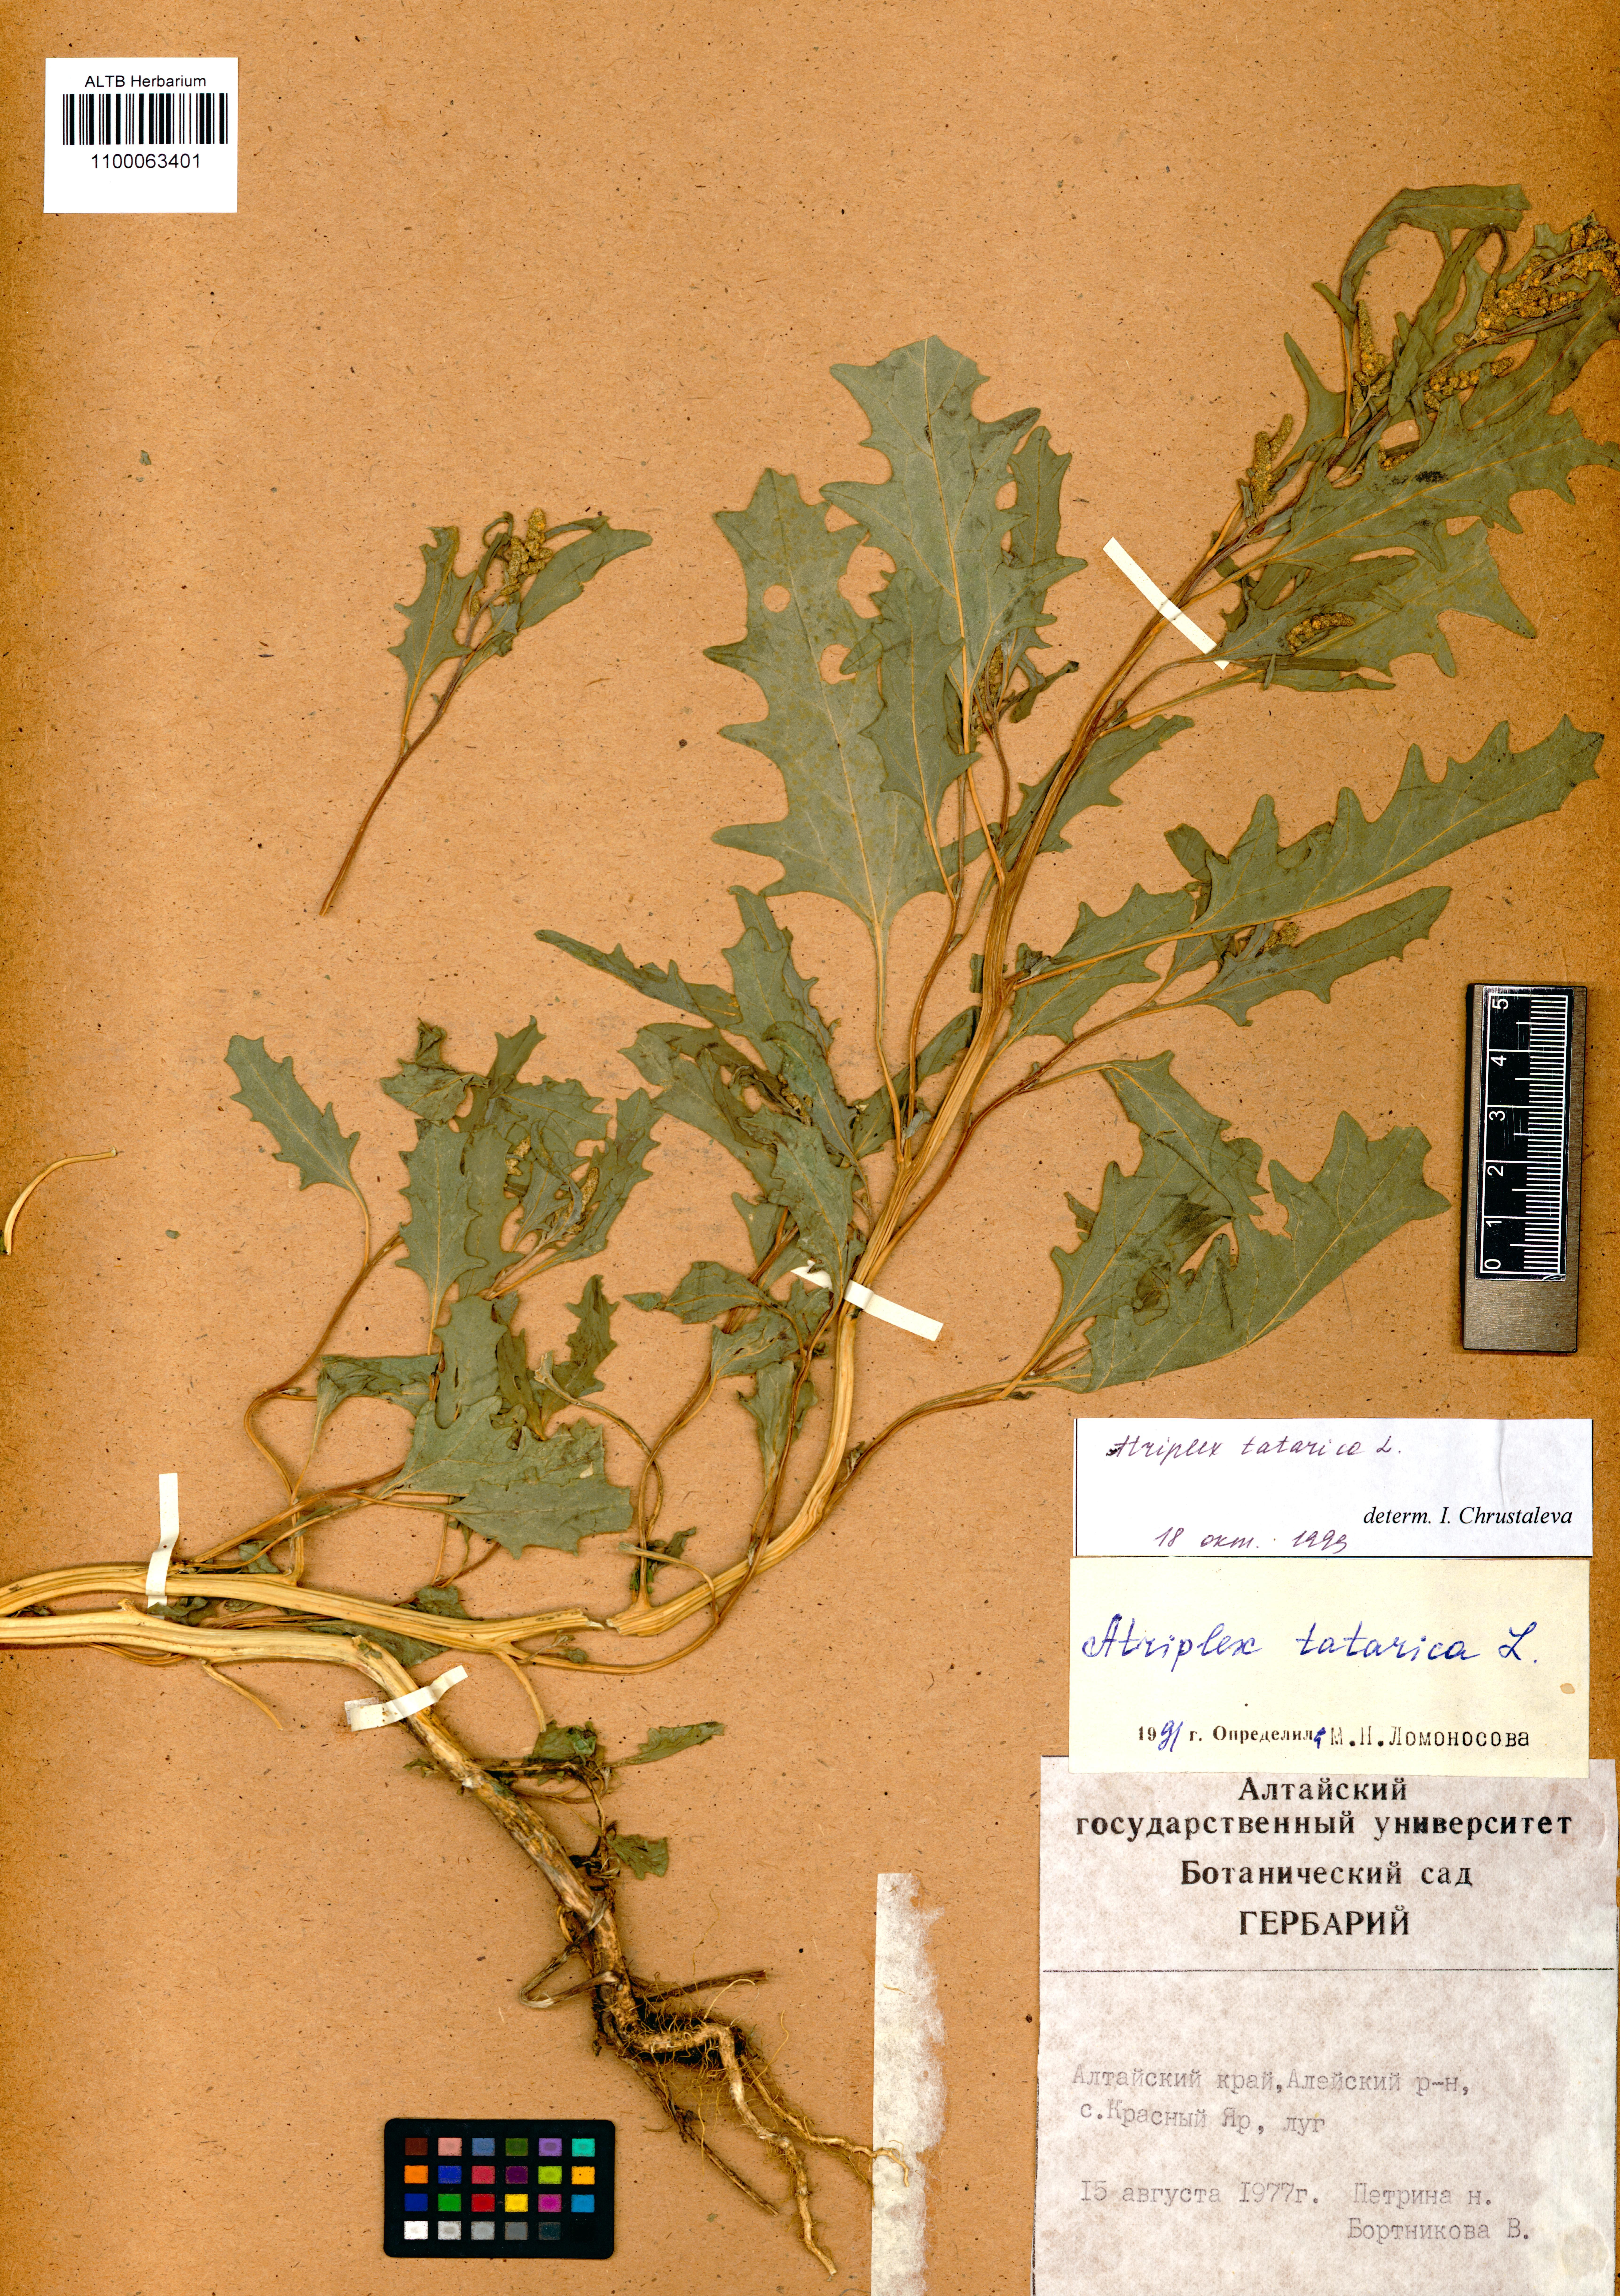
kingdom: Plantae
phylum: Tracheophyta
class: Magnoliopsida
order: Caryophyllales
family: Amaranthaceae
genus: Atriplex
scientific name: Atriplex tatarica
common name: Tatarian orache
